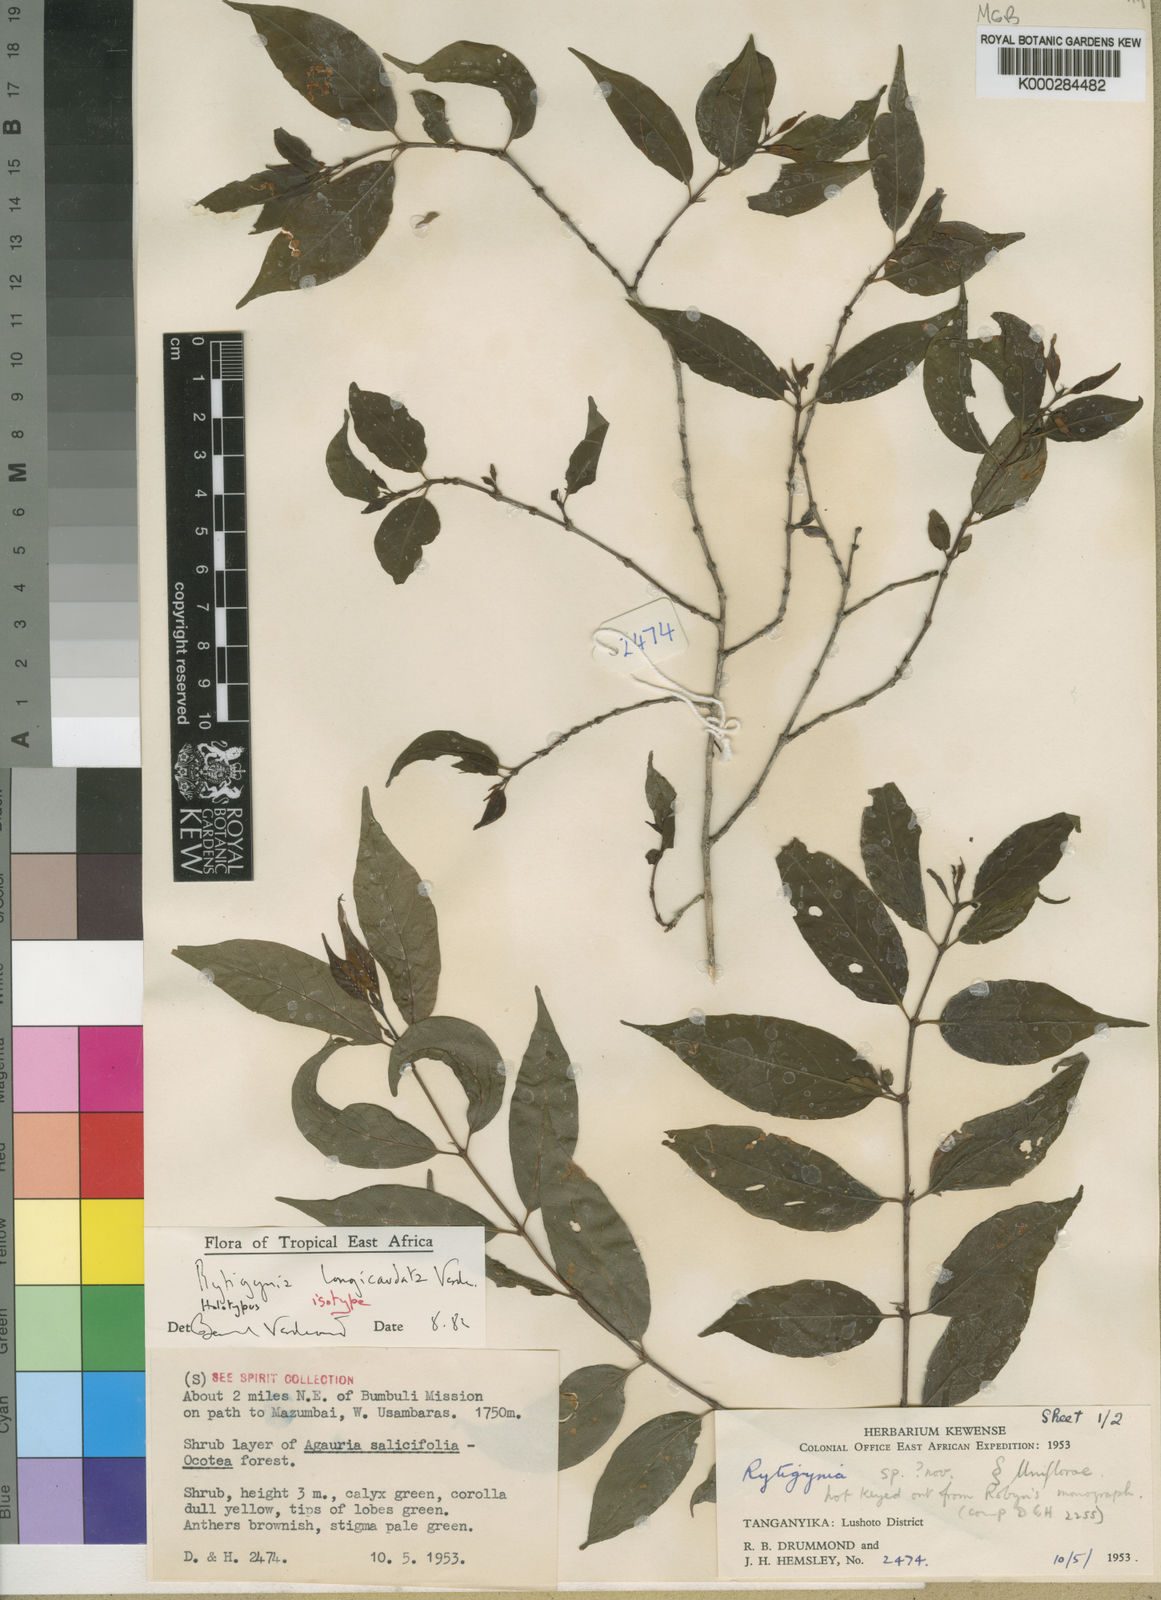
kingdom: Plantae
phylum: Tracheophyta
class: Magnoliopsida
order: Gentianales
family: Rubiaceae
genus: Rytigynia
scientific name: Rytigynia longicaudata
